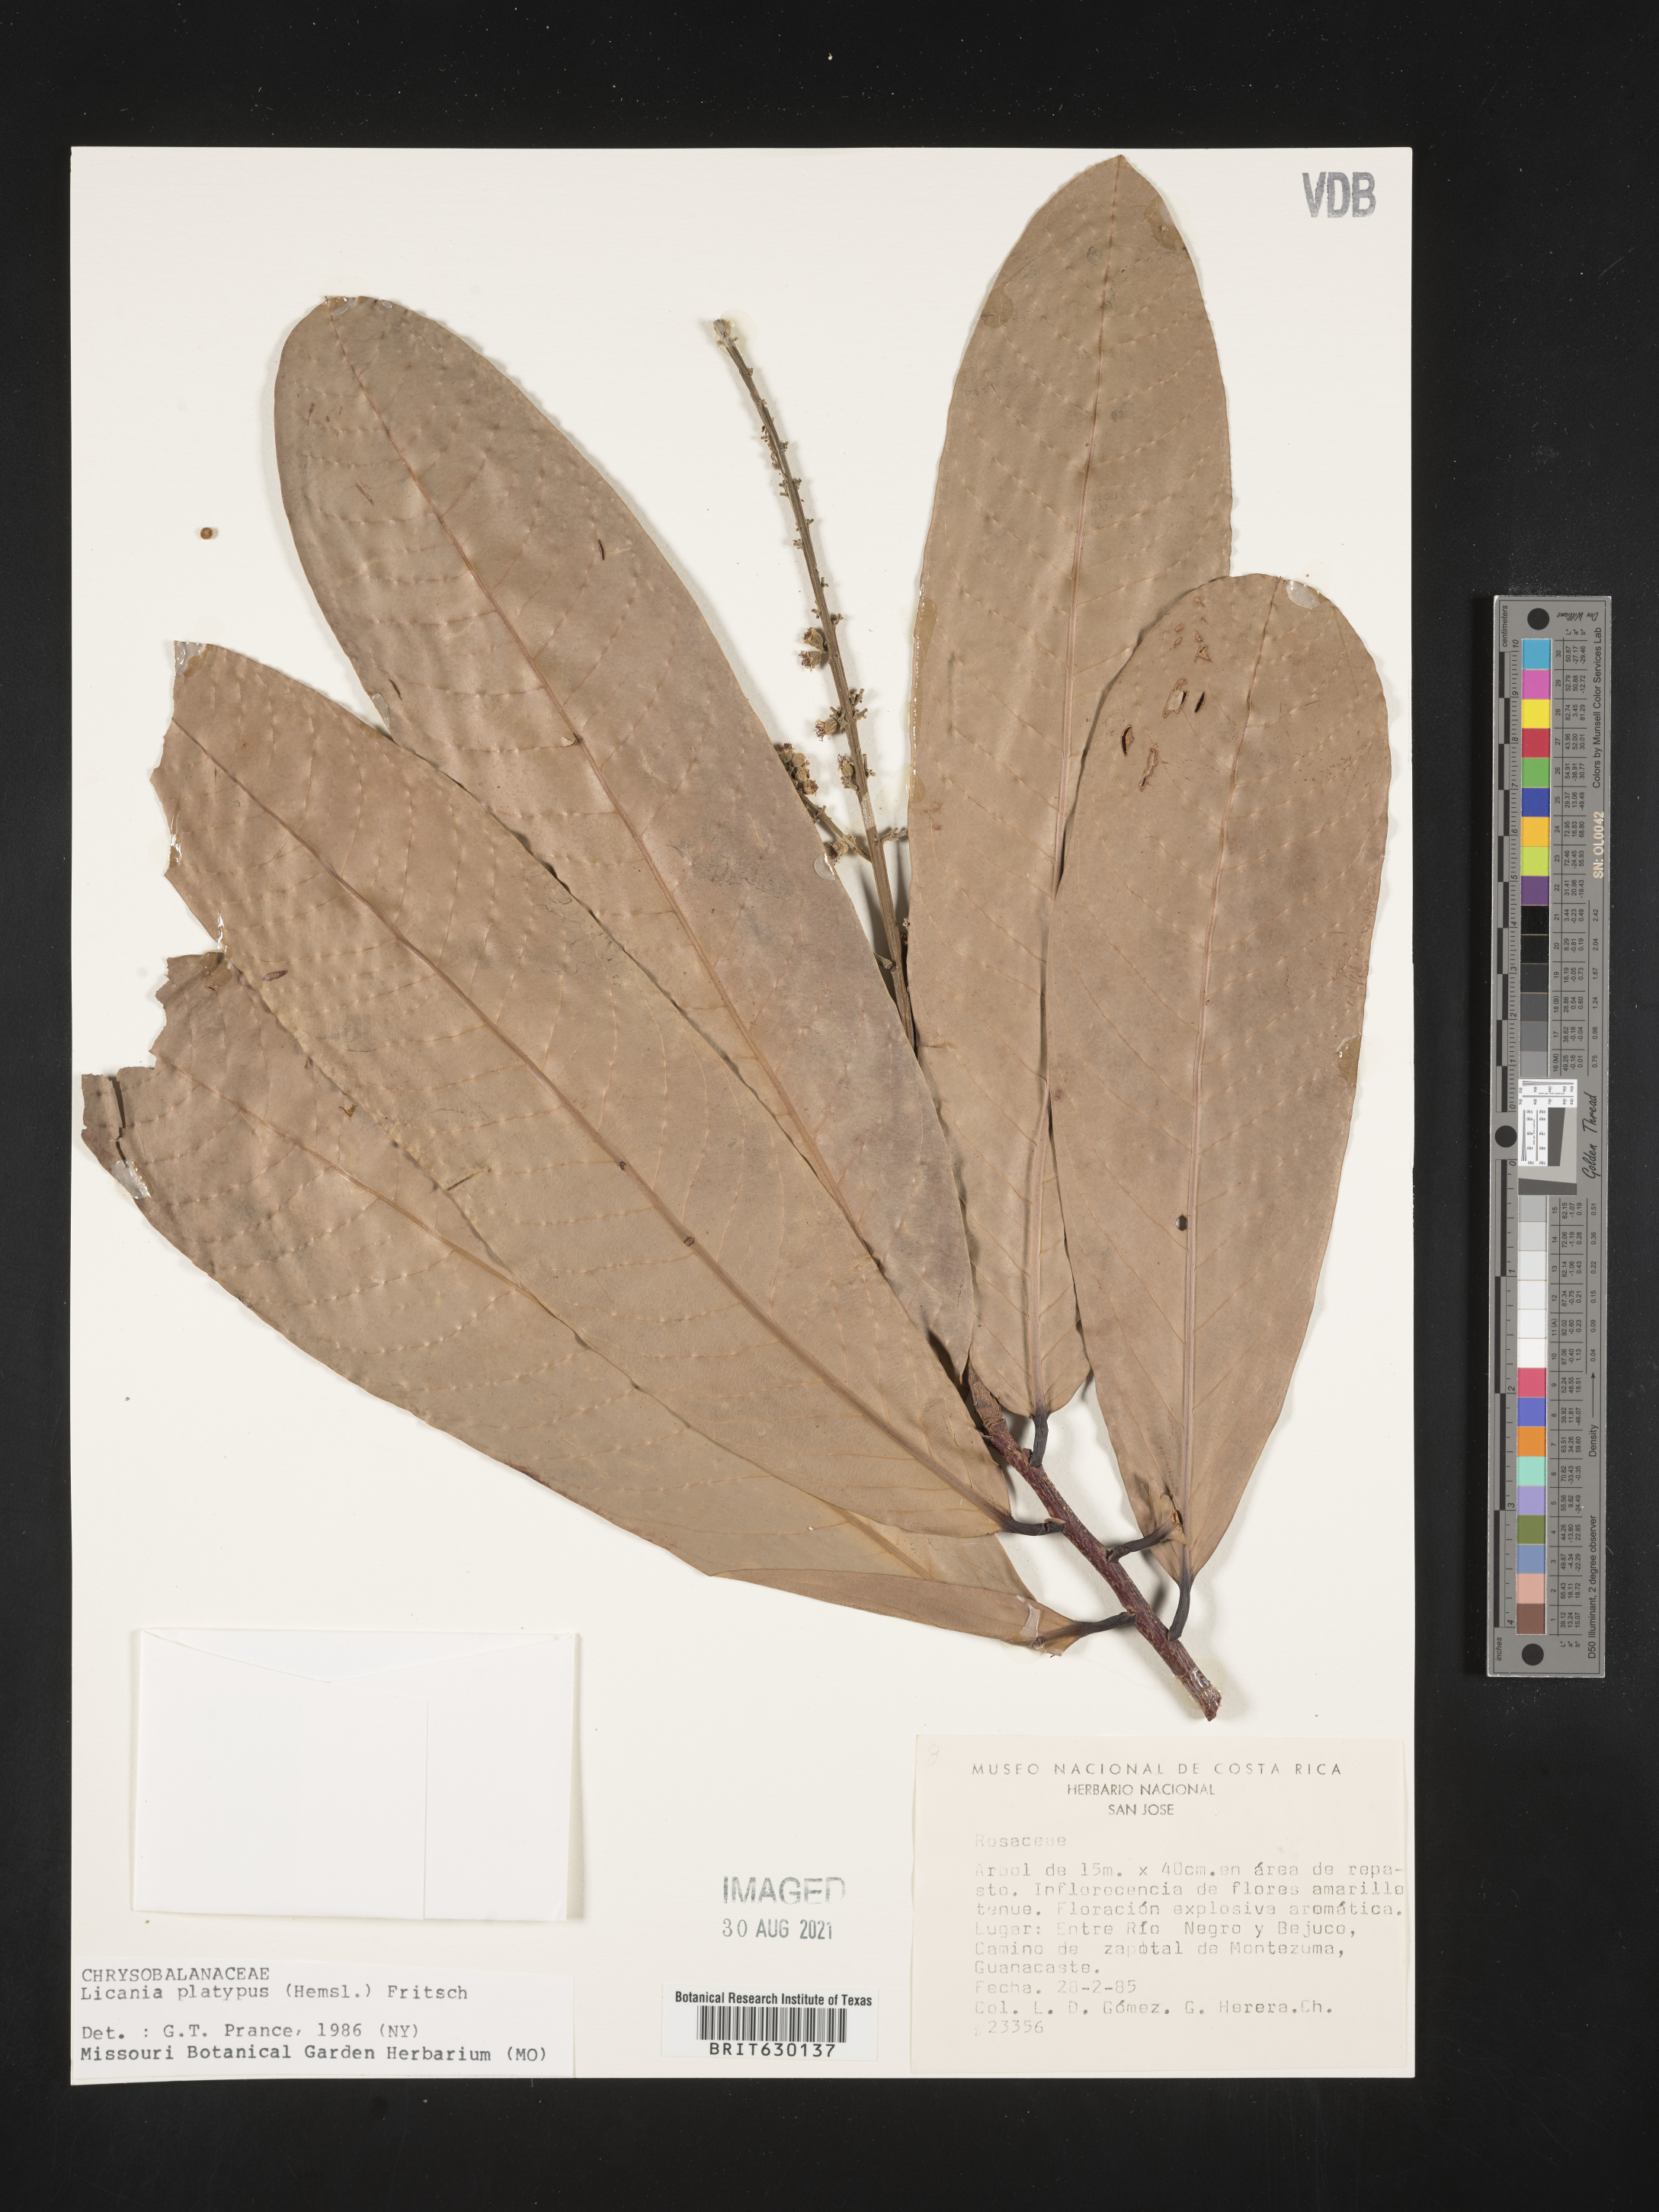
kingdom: Plantae
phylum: Tracheophyta
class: Magnoliopsida
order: Malpighiales
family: Chrysobalanaceae
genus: Moquilea
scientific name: Moquilea platypus
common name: Sansapote
